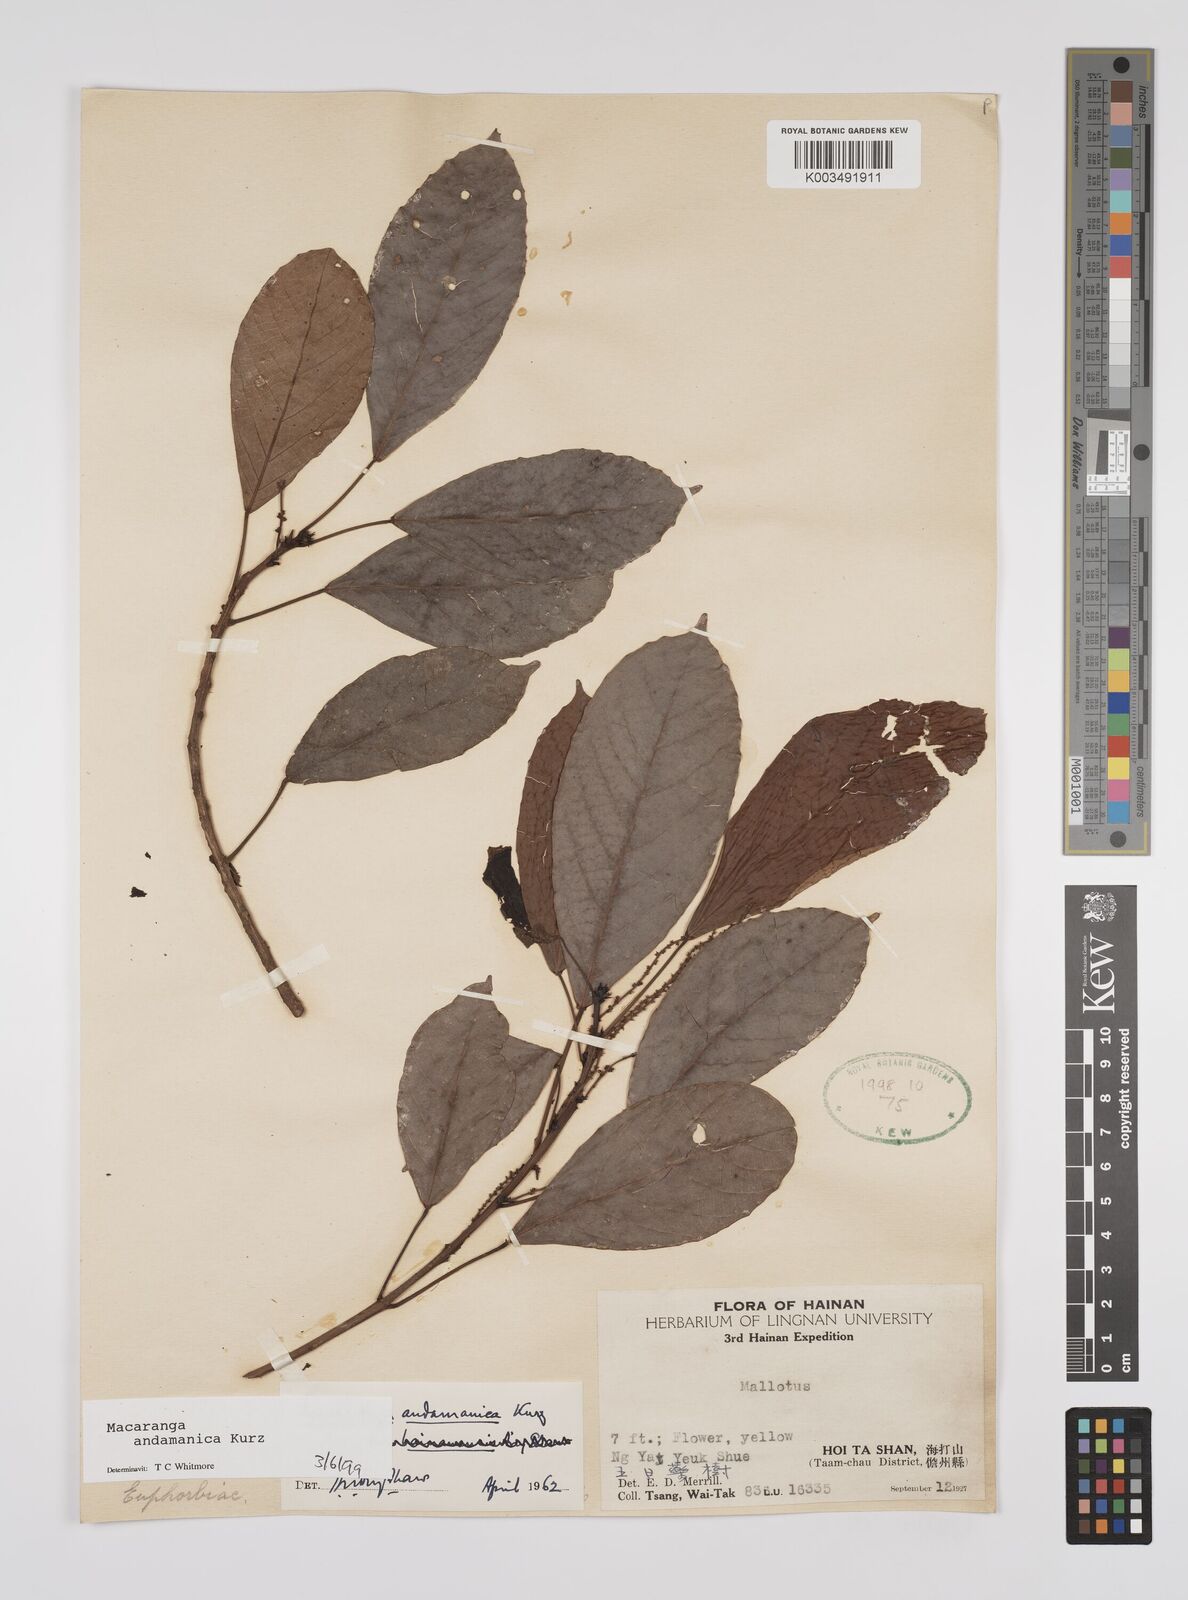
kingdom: Plantae
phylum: Tracheophyta
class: Magnoliopsida
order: Malpighiales
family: Euphorbiaceae
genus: Macaranga
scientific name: Macaranga andamanica
